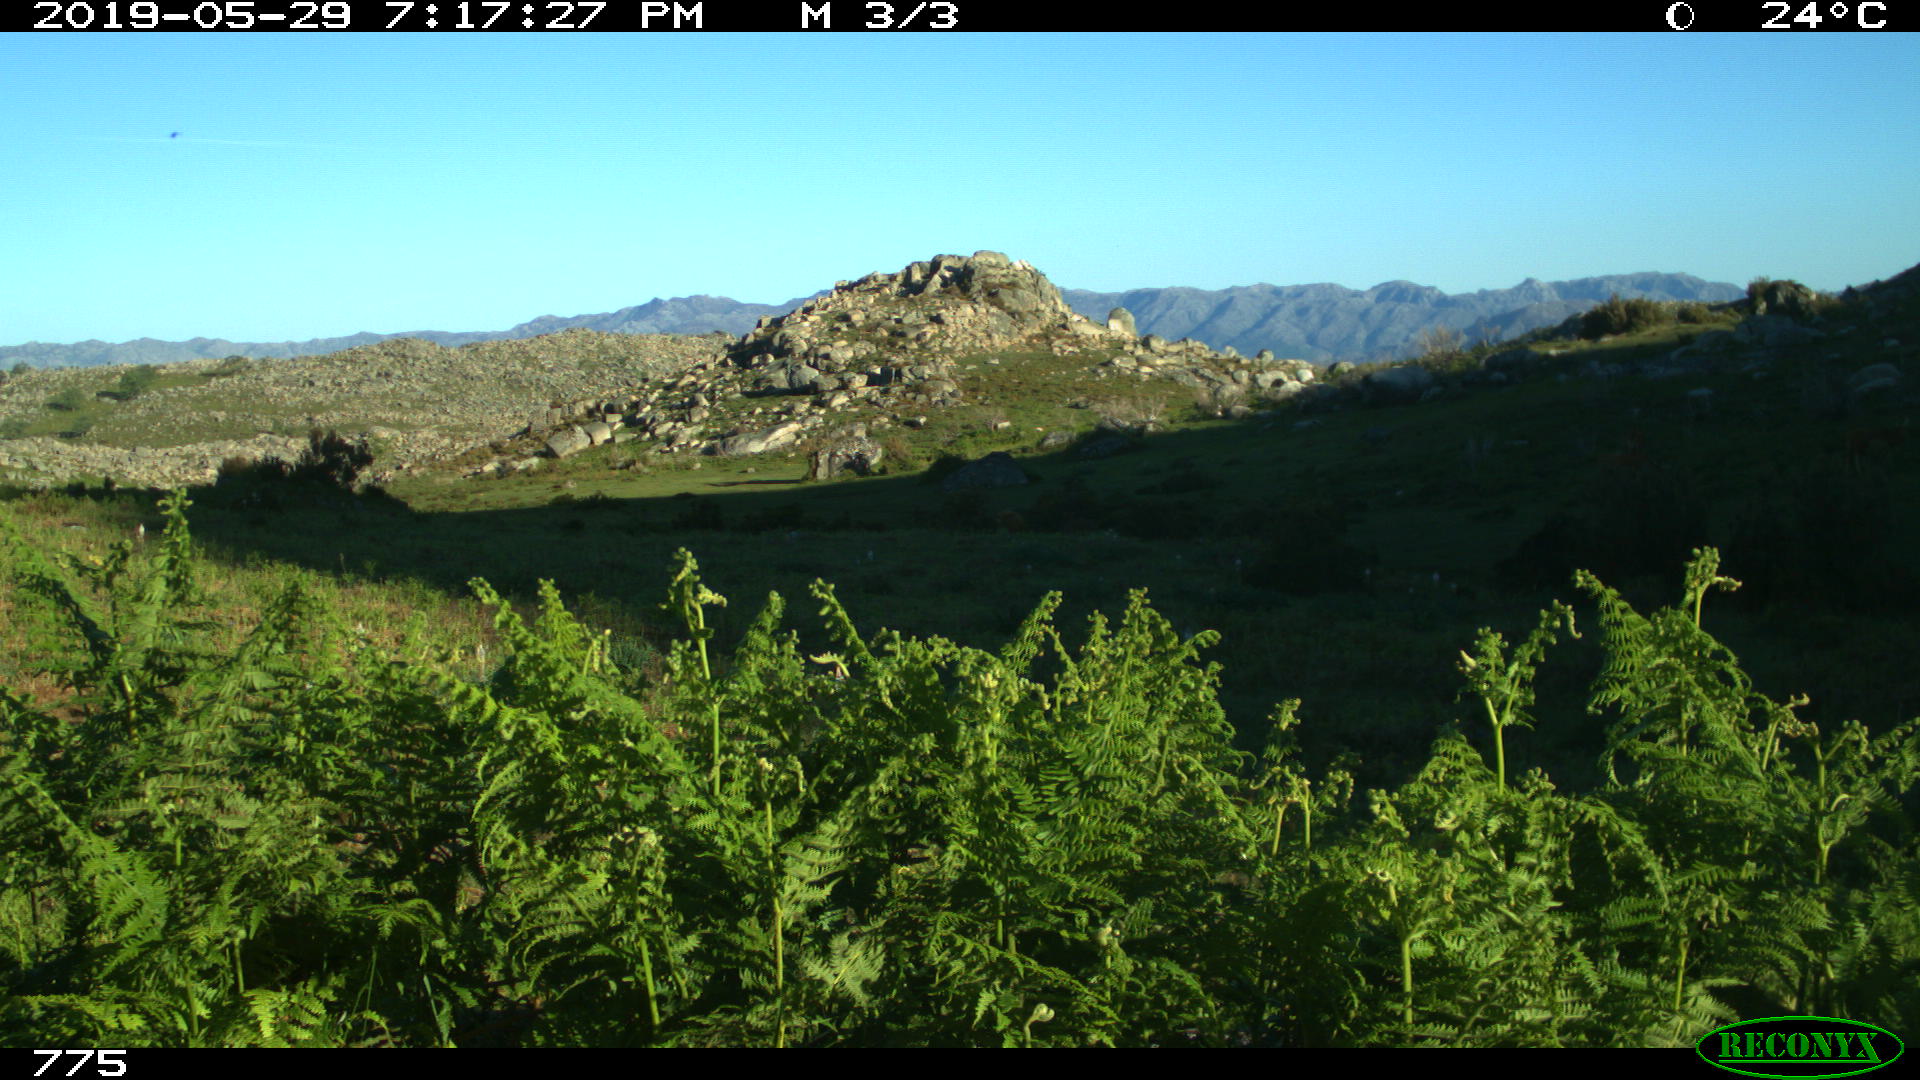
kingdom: Animalia
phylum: Chordata
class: Mammalia
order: Artiodactyla
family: Bovidae
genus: Bos
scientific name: Bos taurus
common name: Domesticated cattle
